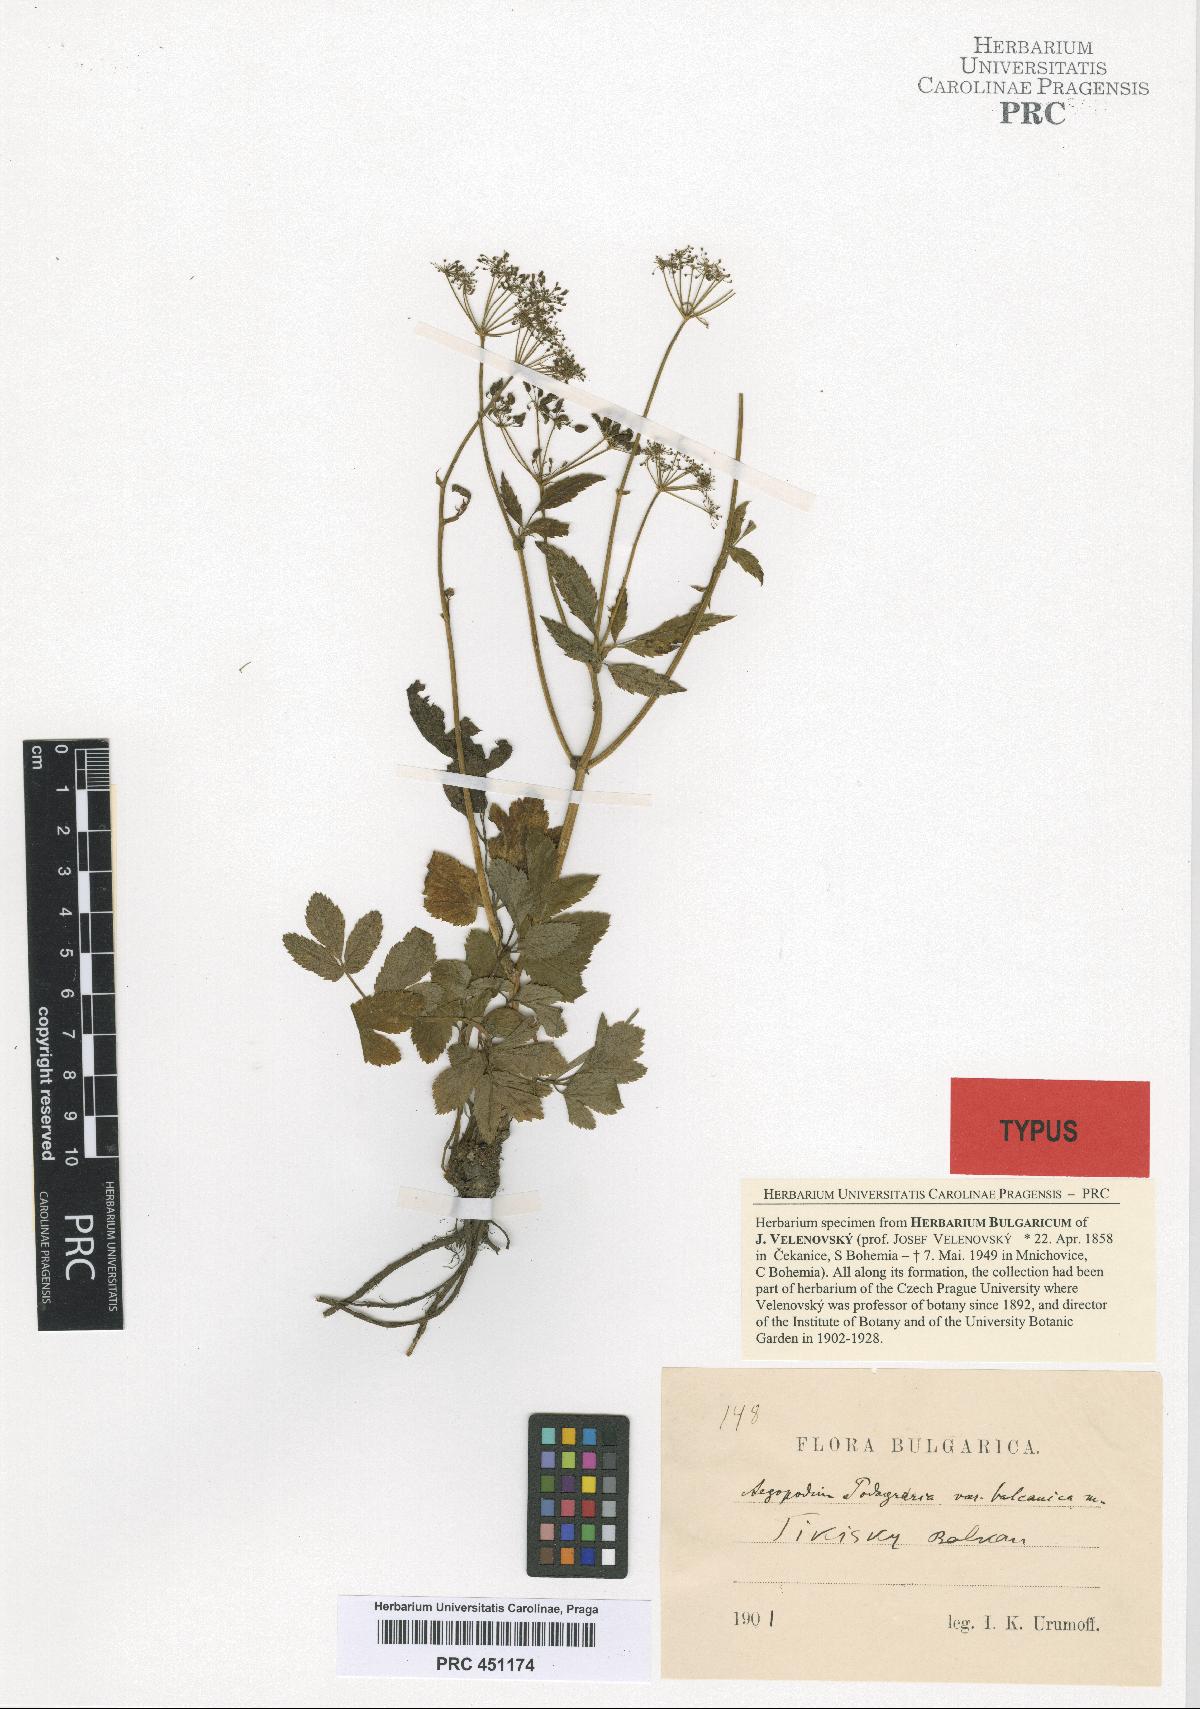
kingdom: Plantae
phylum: Tracheophyta
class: Magnoliopsida
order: Apiales
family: Apiaceae
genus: Aegopodium
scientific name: Aegopodium podagraria
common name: Ground-elder
